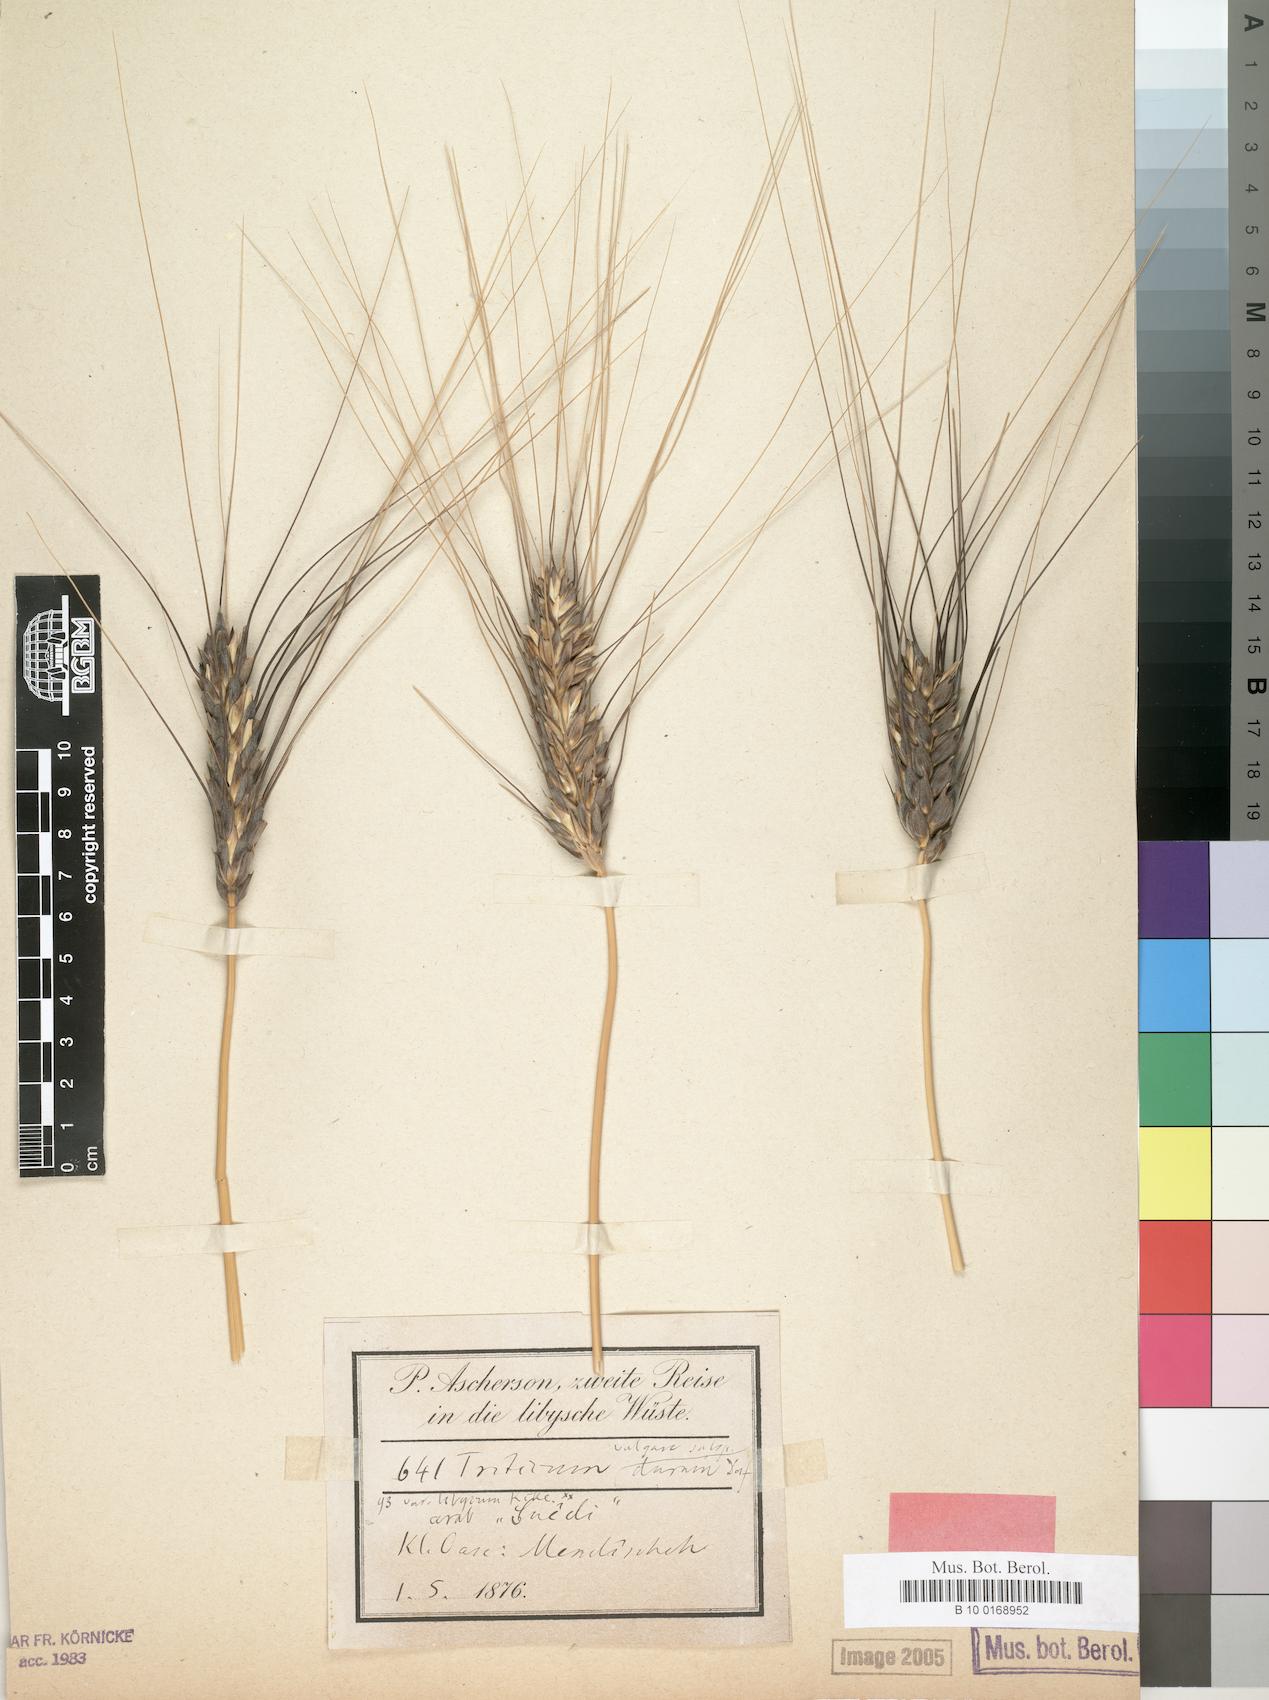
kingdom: Plantae
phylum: Tracheophyta
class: Liliopsida
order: Poales
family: Poaceae
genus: Triticum
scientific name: Triticum turgidum
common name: Rivet wheat
